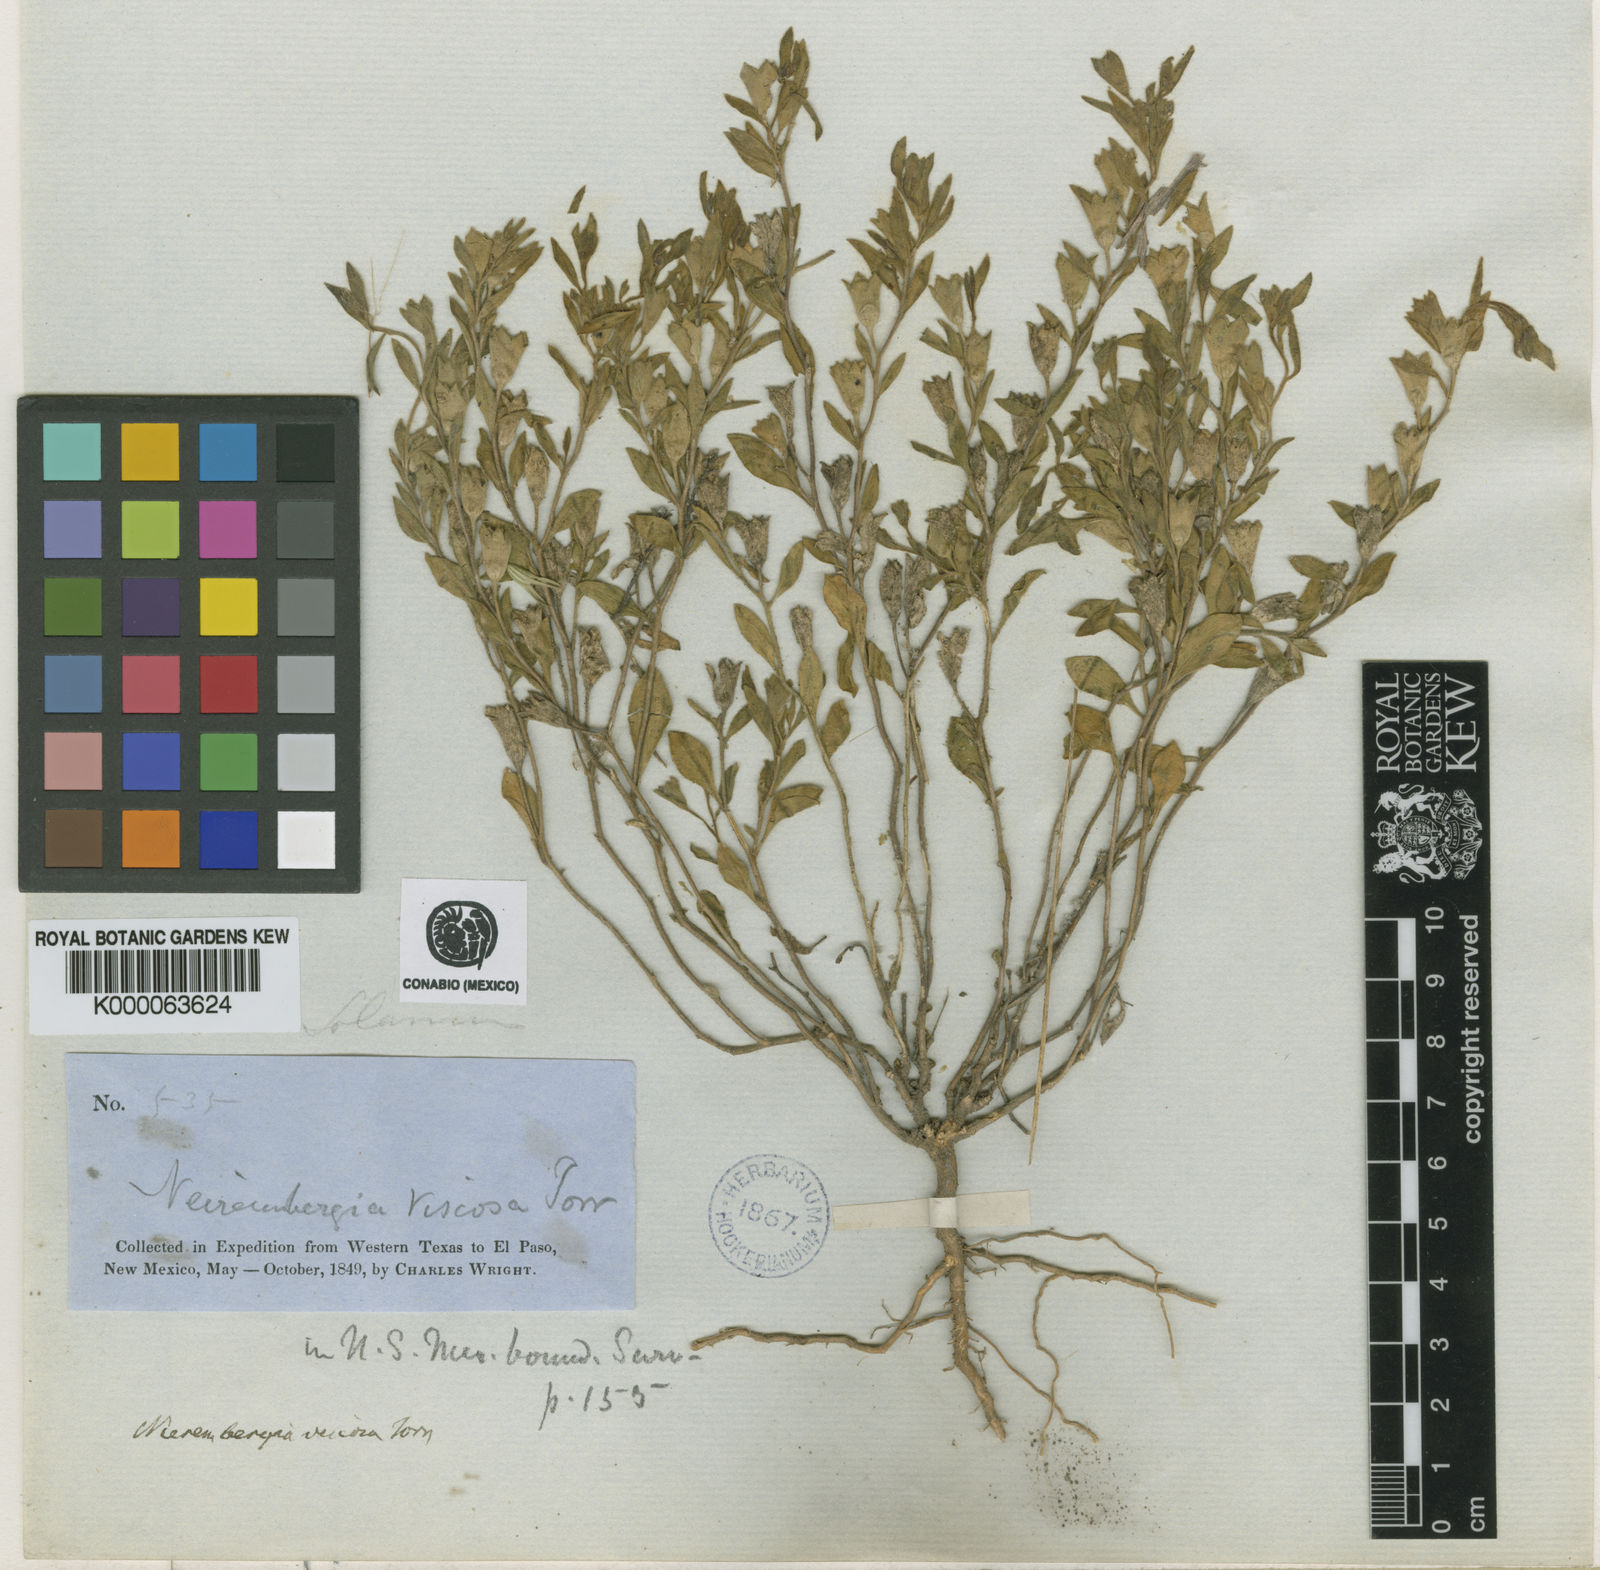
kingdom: Plantae
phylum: Tracheophyta
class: Magnoliopsida
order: Solanales
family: Solanaceae
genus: Hunzikeria
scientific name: Hunzikeria texana
